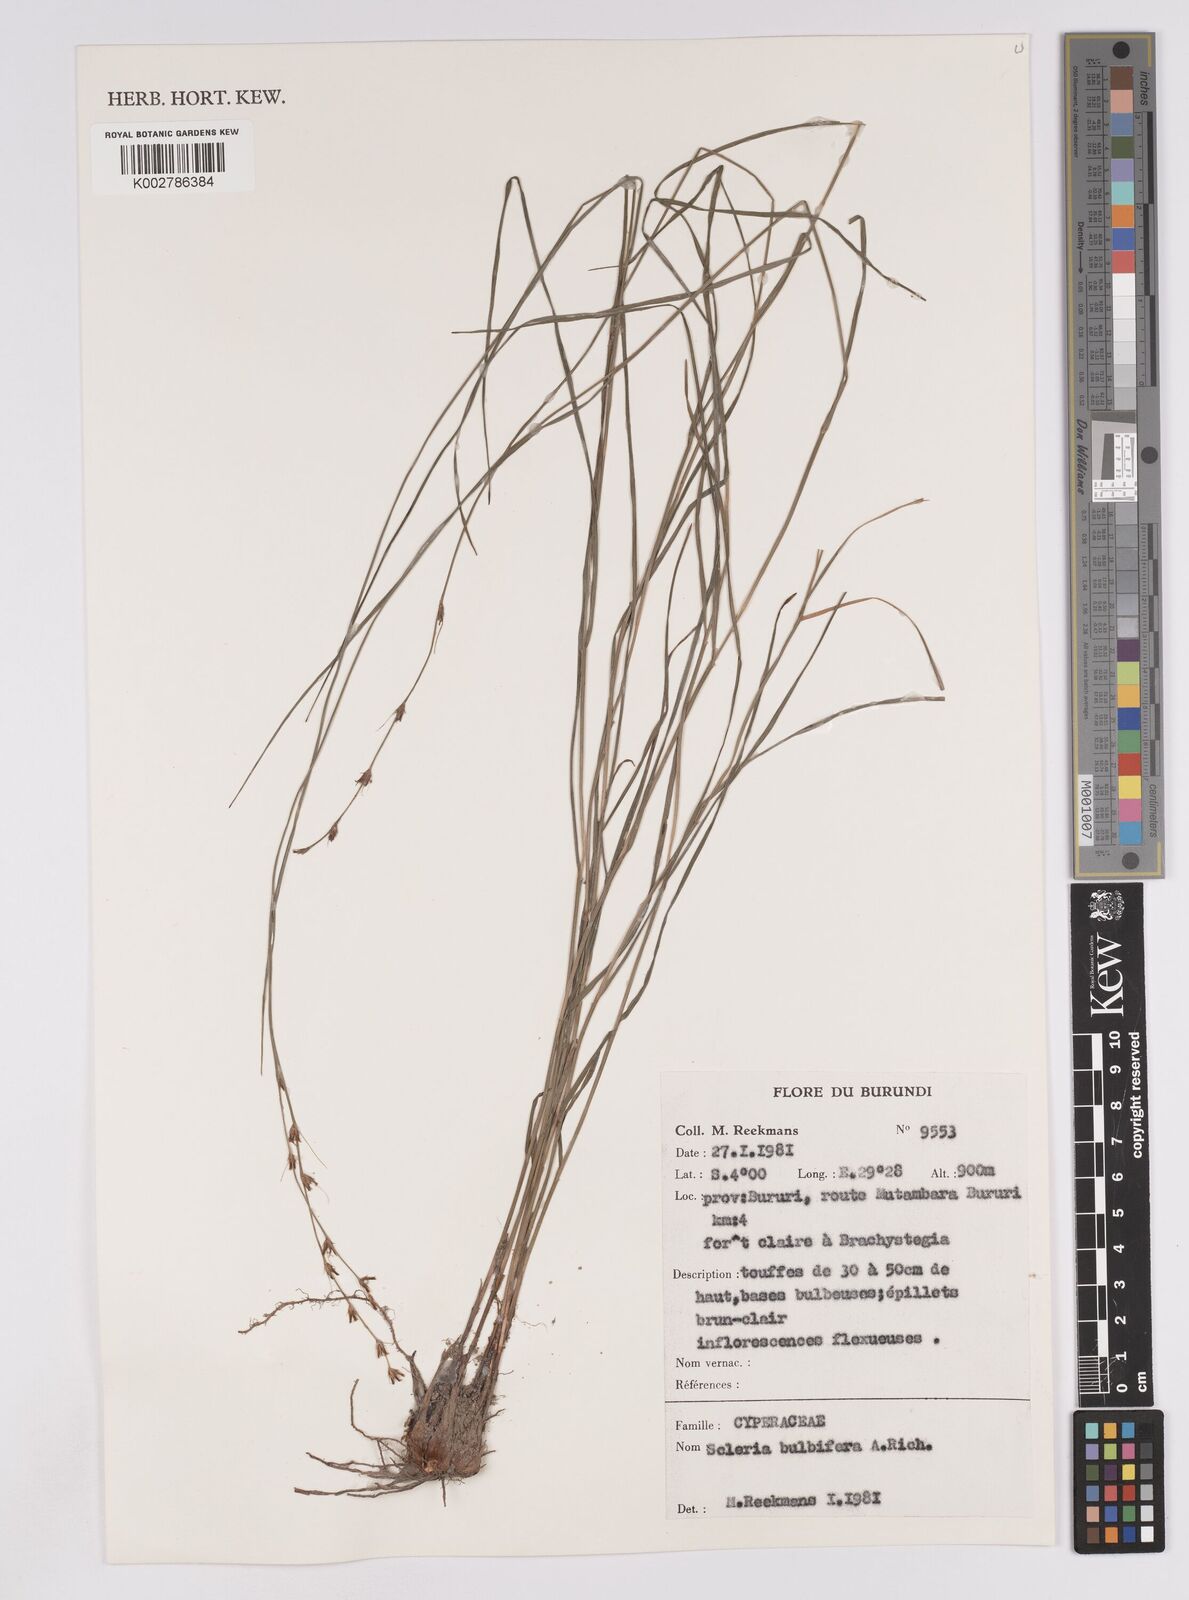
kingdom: Plantae
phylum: Tracheophyta
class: Liliopsida
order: Poales
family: Cyperaceae
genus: Scleria
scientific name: Scleria bulbifera
